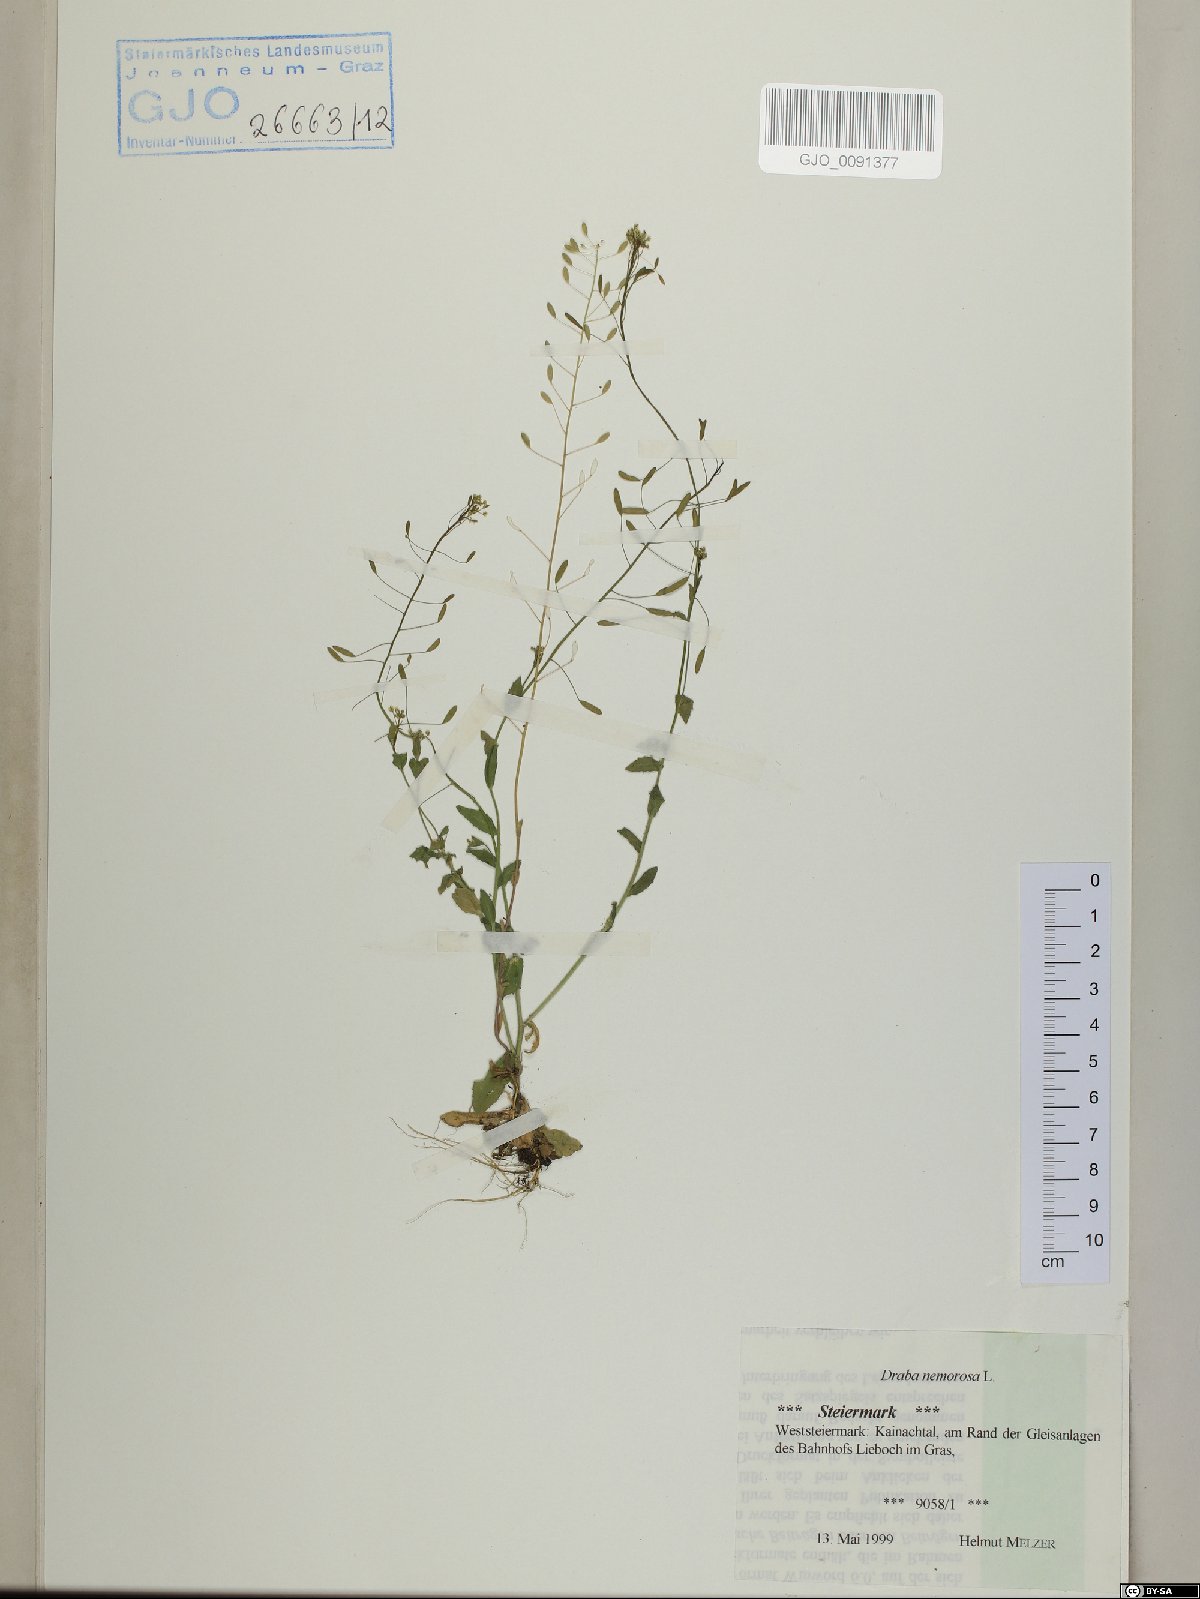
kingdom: Plantae
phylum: Tracheophyta
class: Magnoliopsida
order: Brassicales
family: Brassicaceae
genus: Draba
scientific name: Draba nemorosa
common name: Wood whitlow-grass
